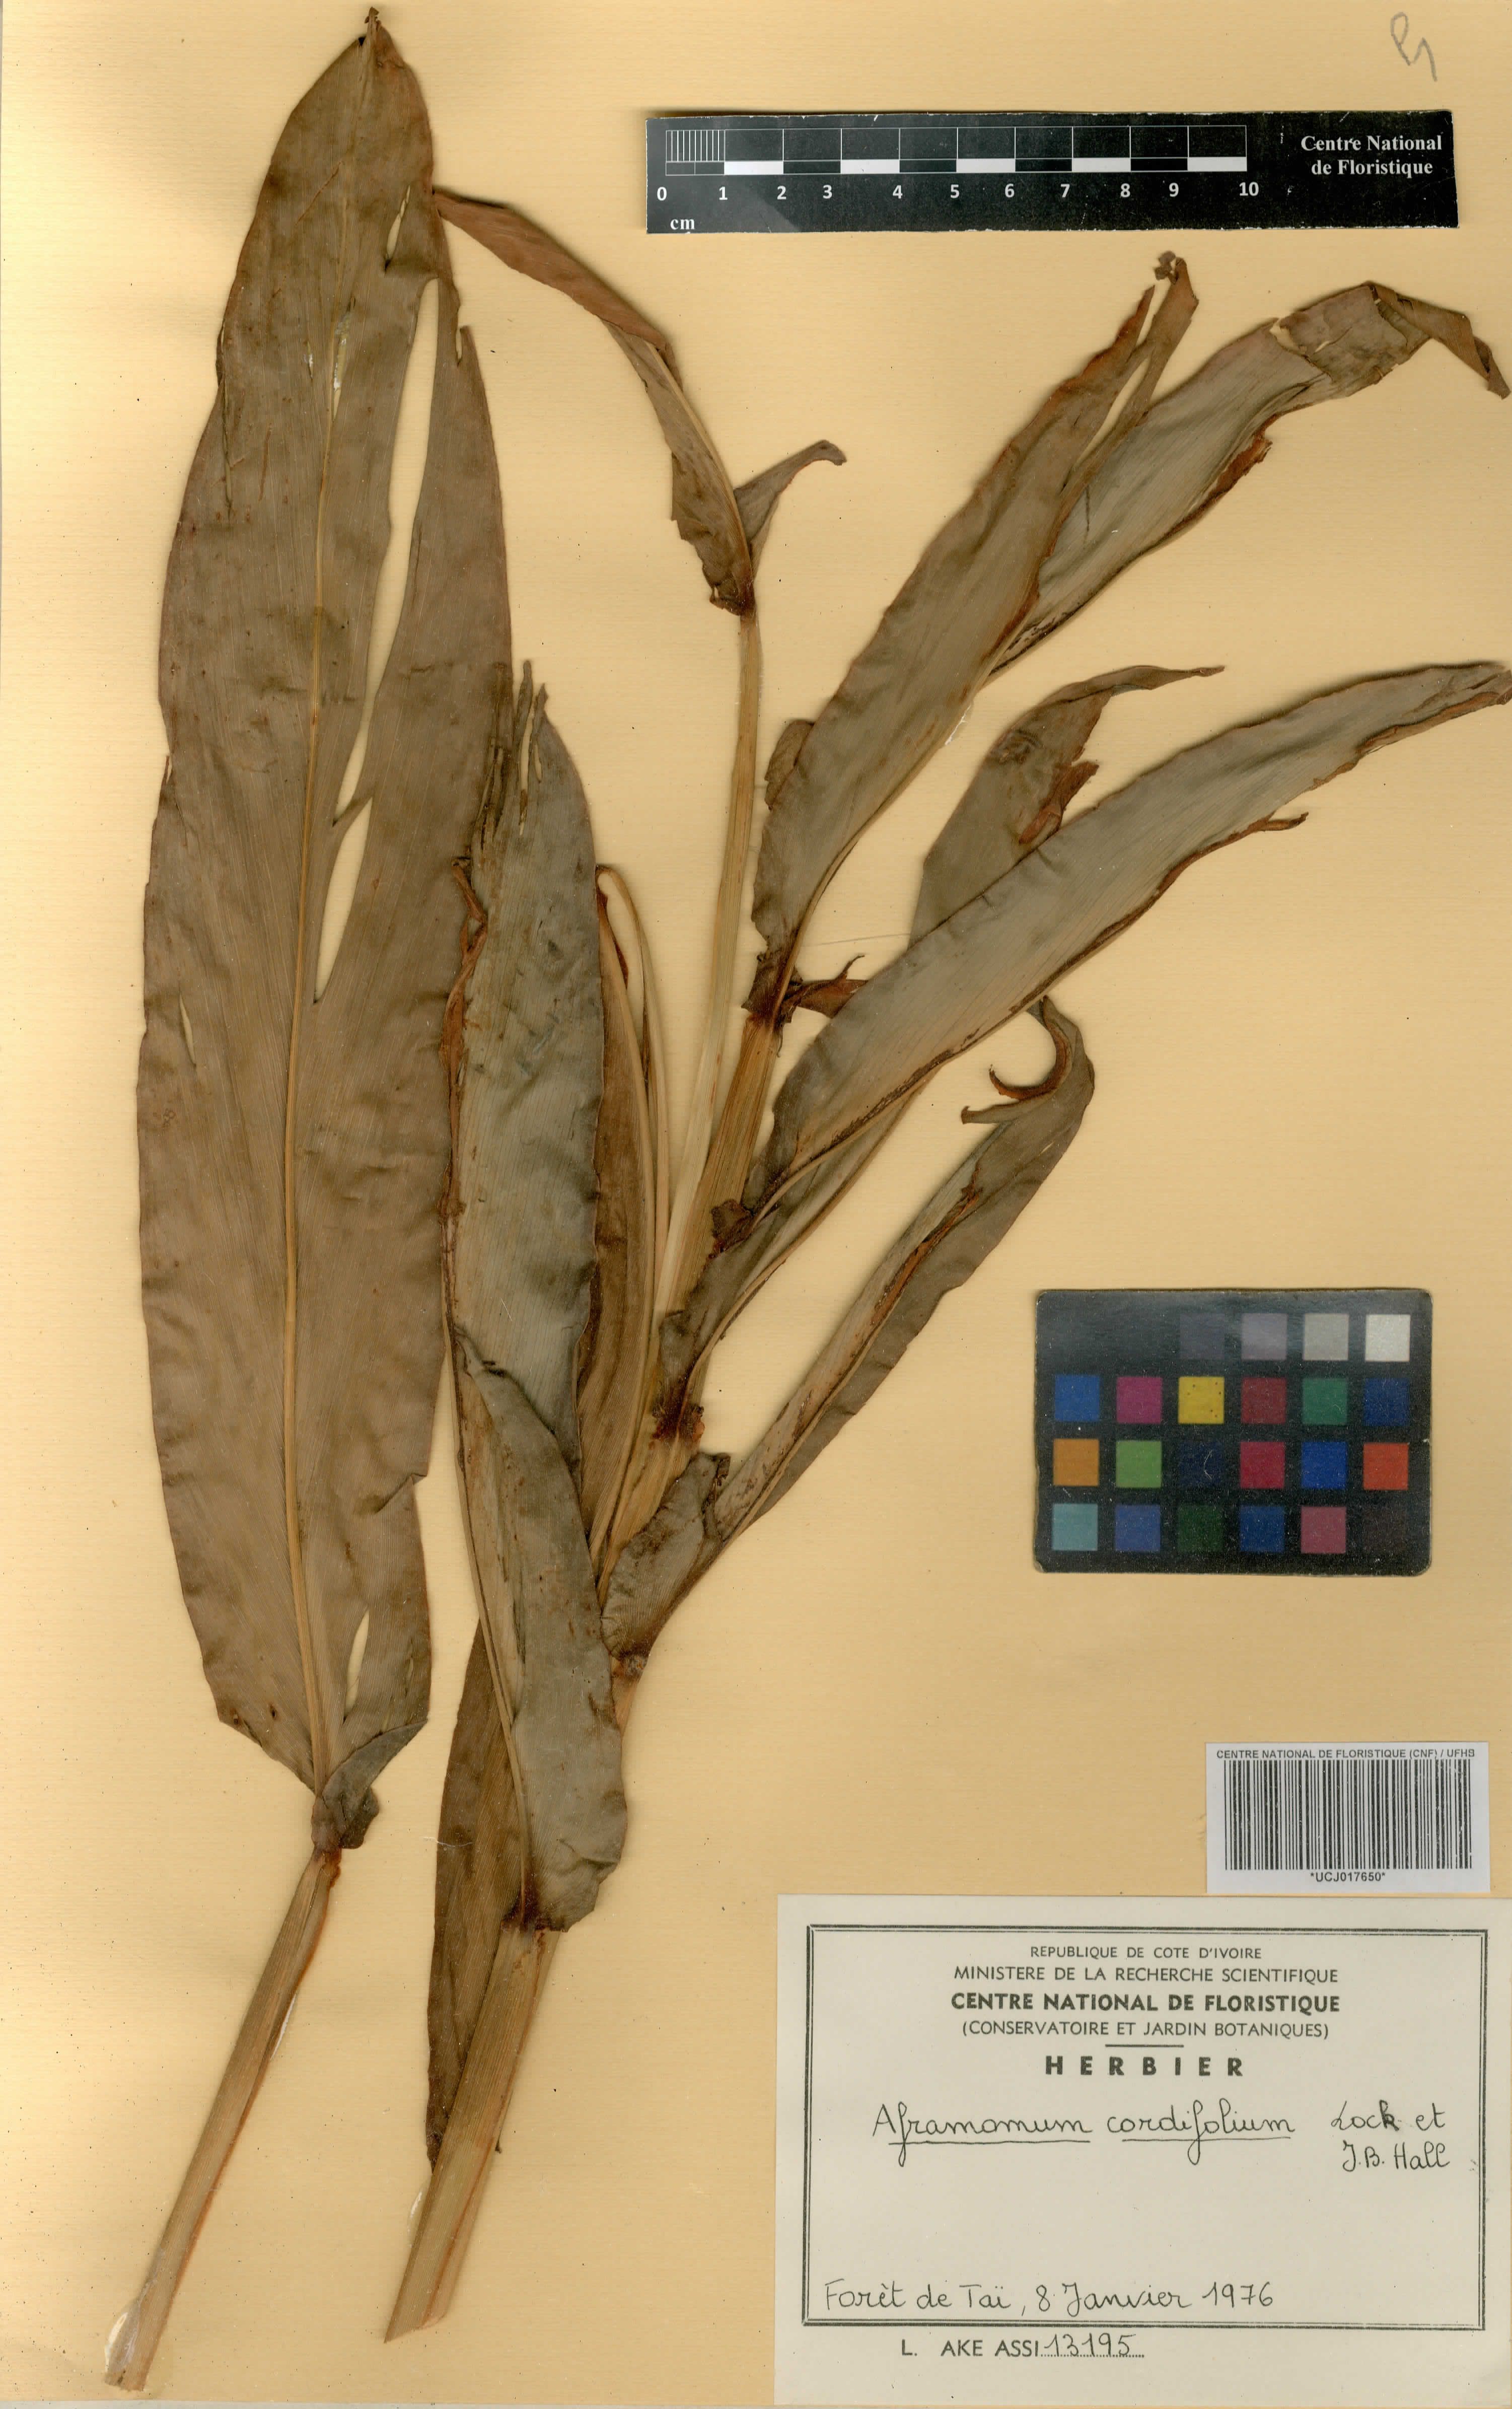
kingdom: Plantae
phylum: Tracheophyta
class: Liliopsida
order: Zingiberales
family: Zingiberaceae
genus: Aframomum
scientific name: Aframomum cordifolium
